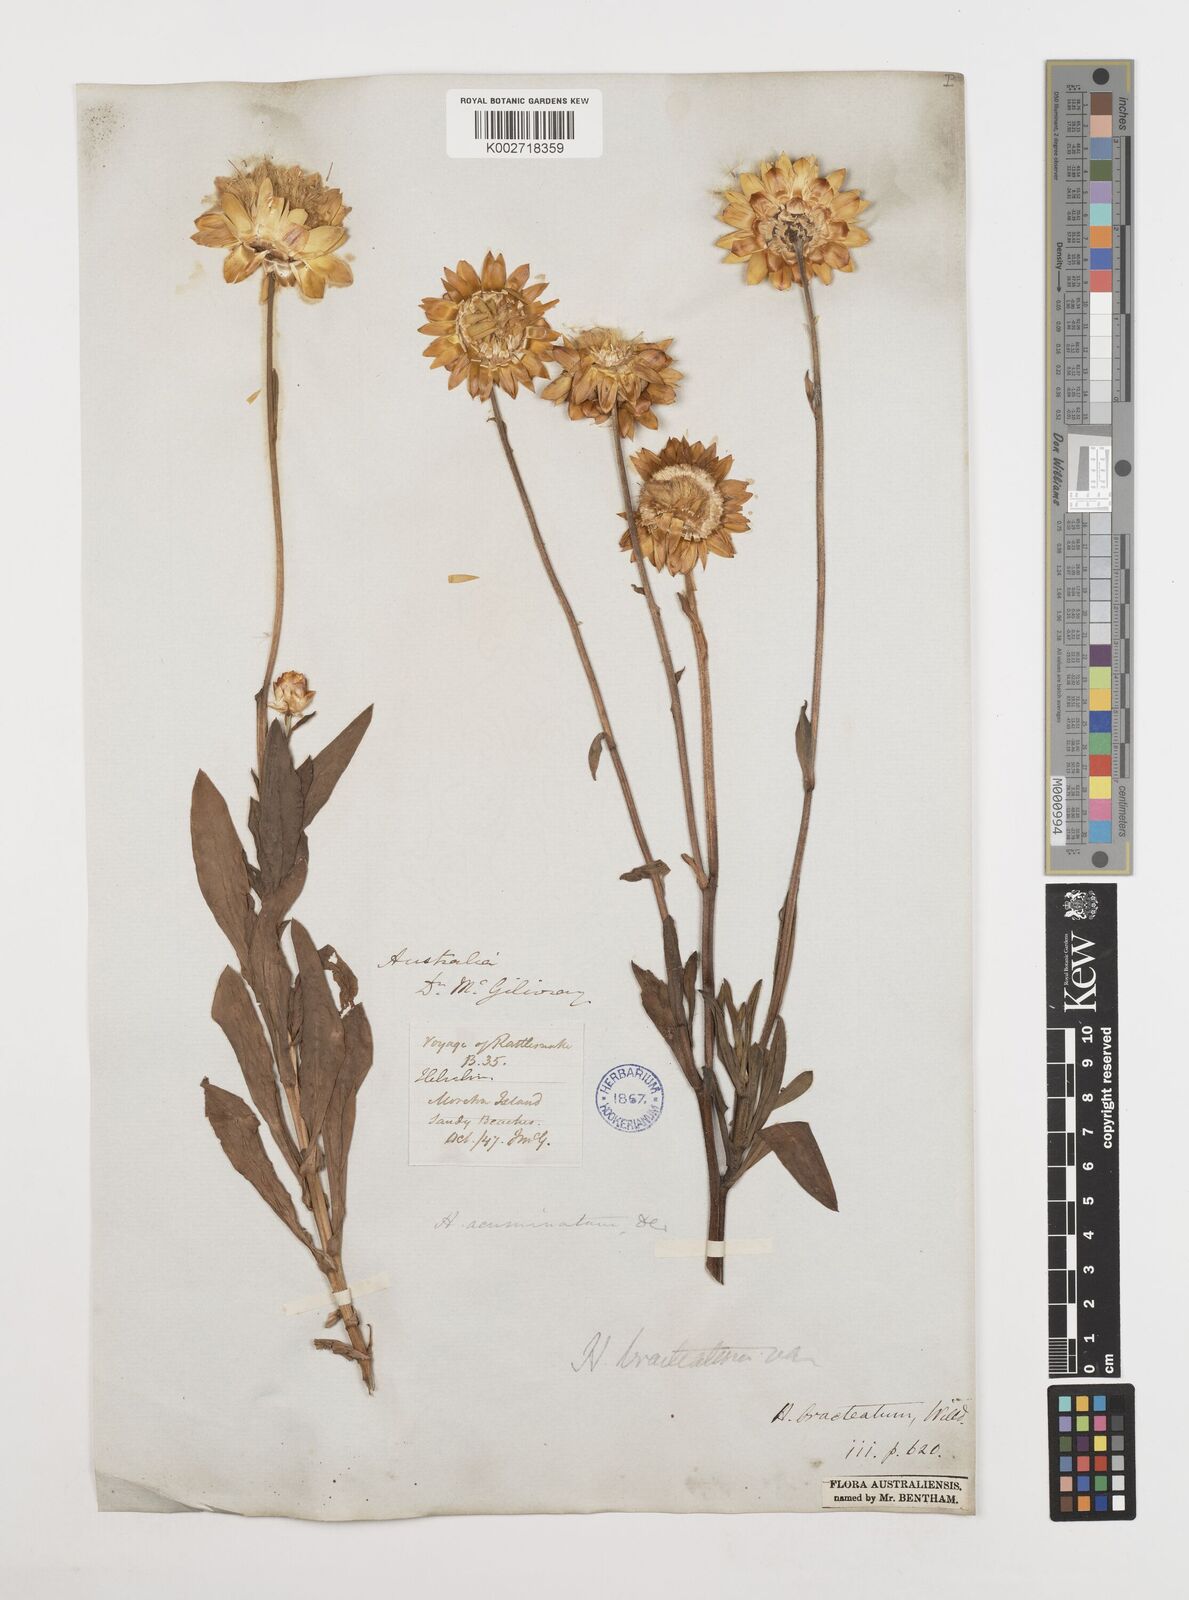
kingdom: Plantae
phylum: Tracheophyta
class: Magnoliopsida
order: Asterales
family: Asteraceae
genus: Xerochrysum
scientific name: Xerochrysum bracteatum
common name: Bracted strawflower
